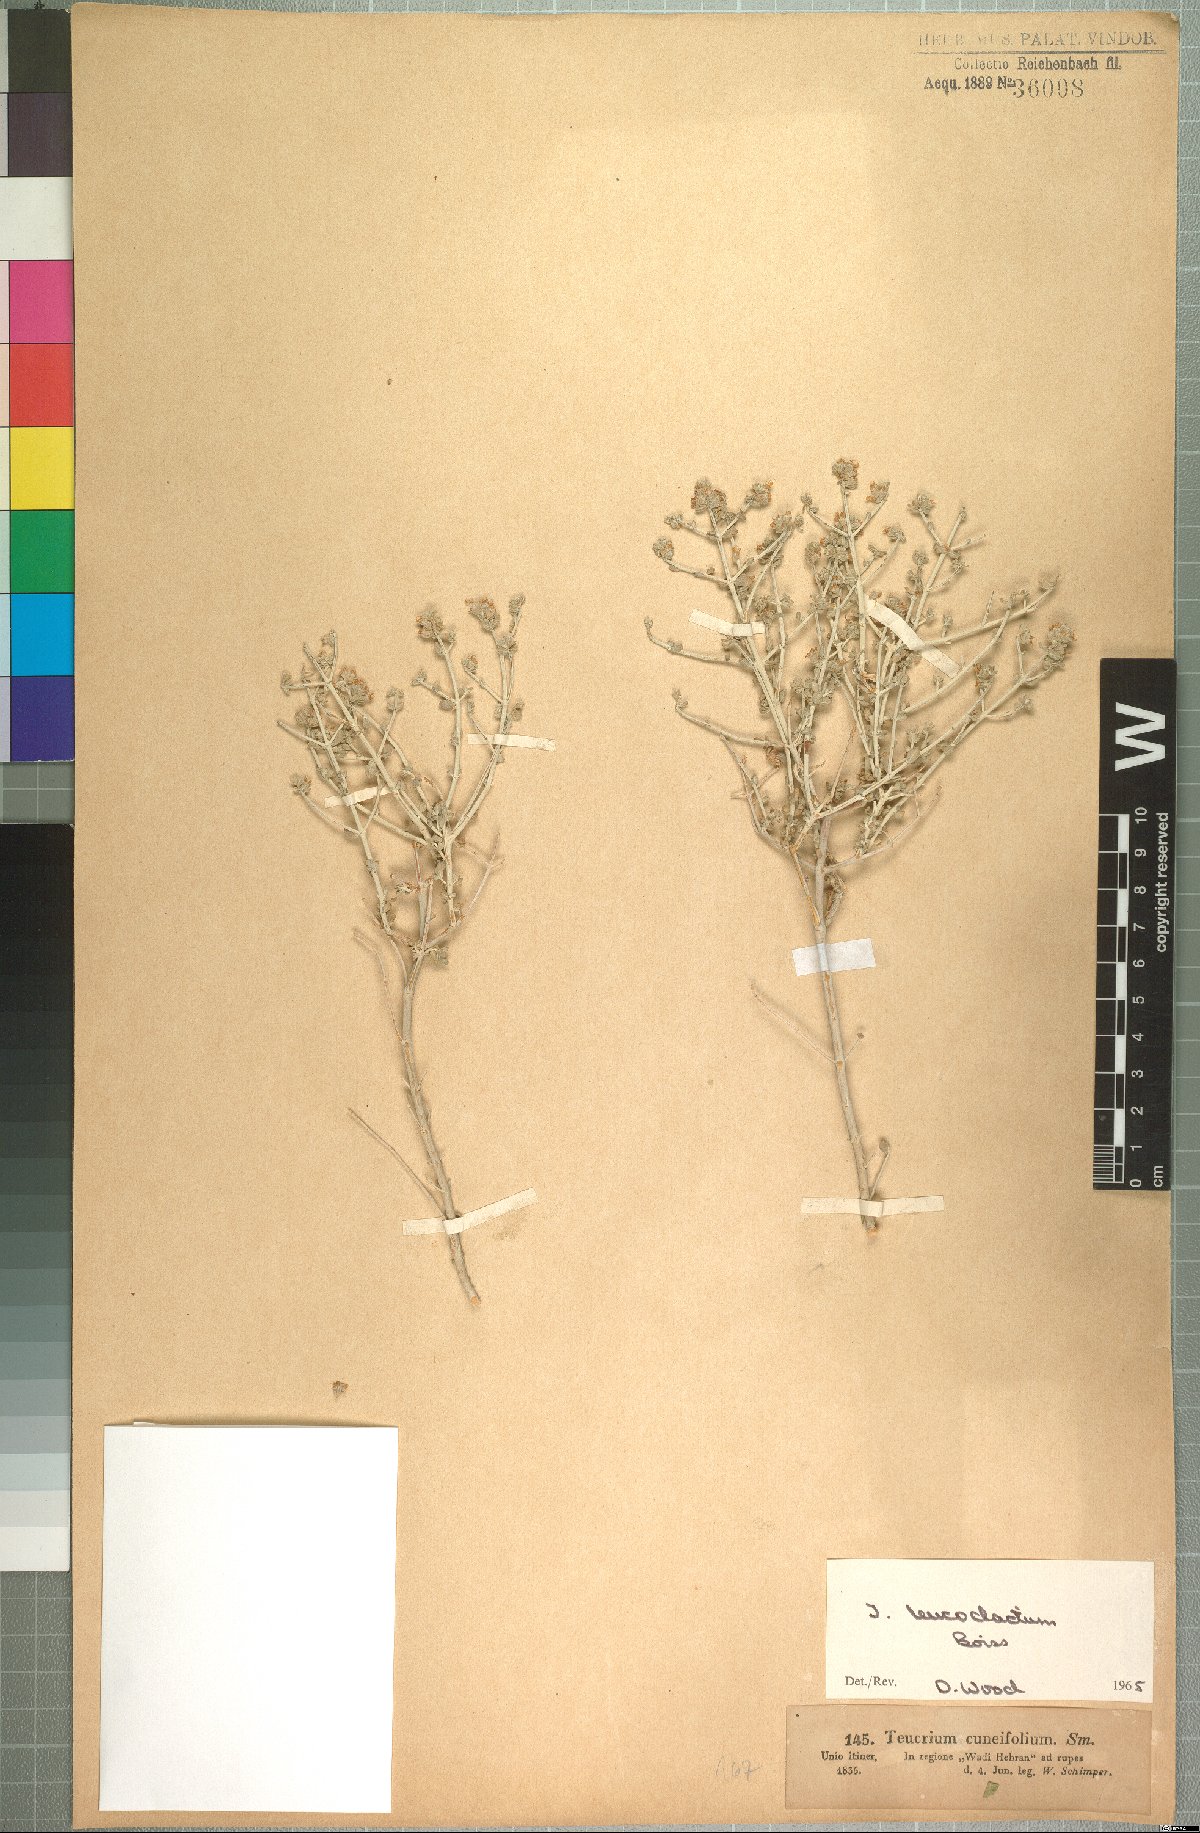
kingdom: Plantae
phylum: Tracheophyta
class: Magnoliopsida
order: Lamiales
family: Lamiaceae
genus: Teucrium
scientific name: Teucrium leucocladum
